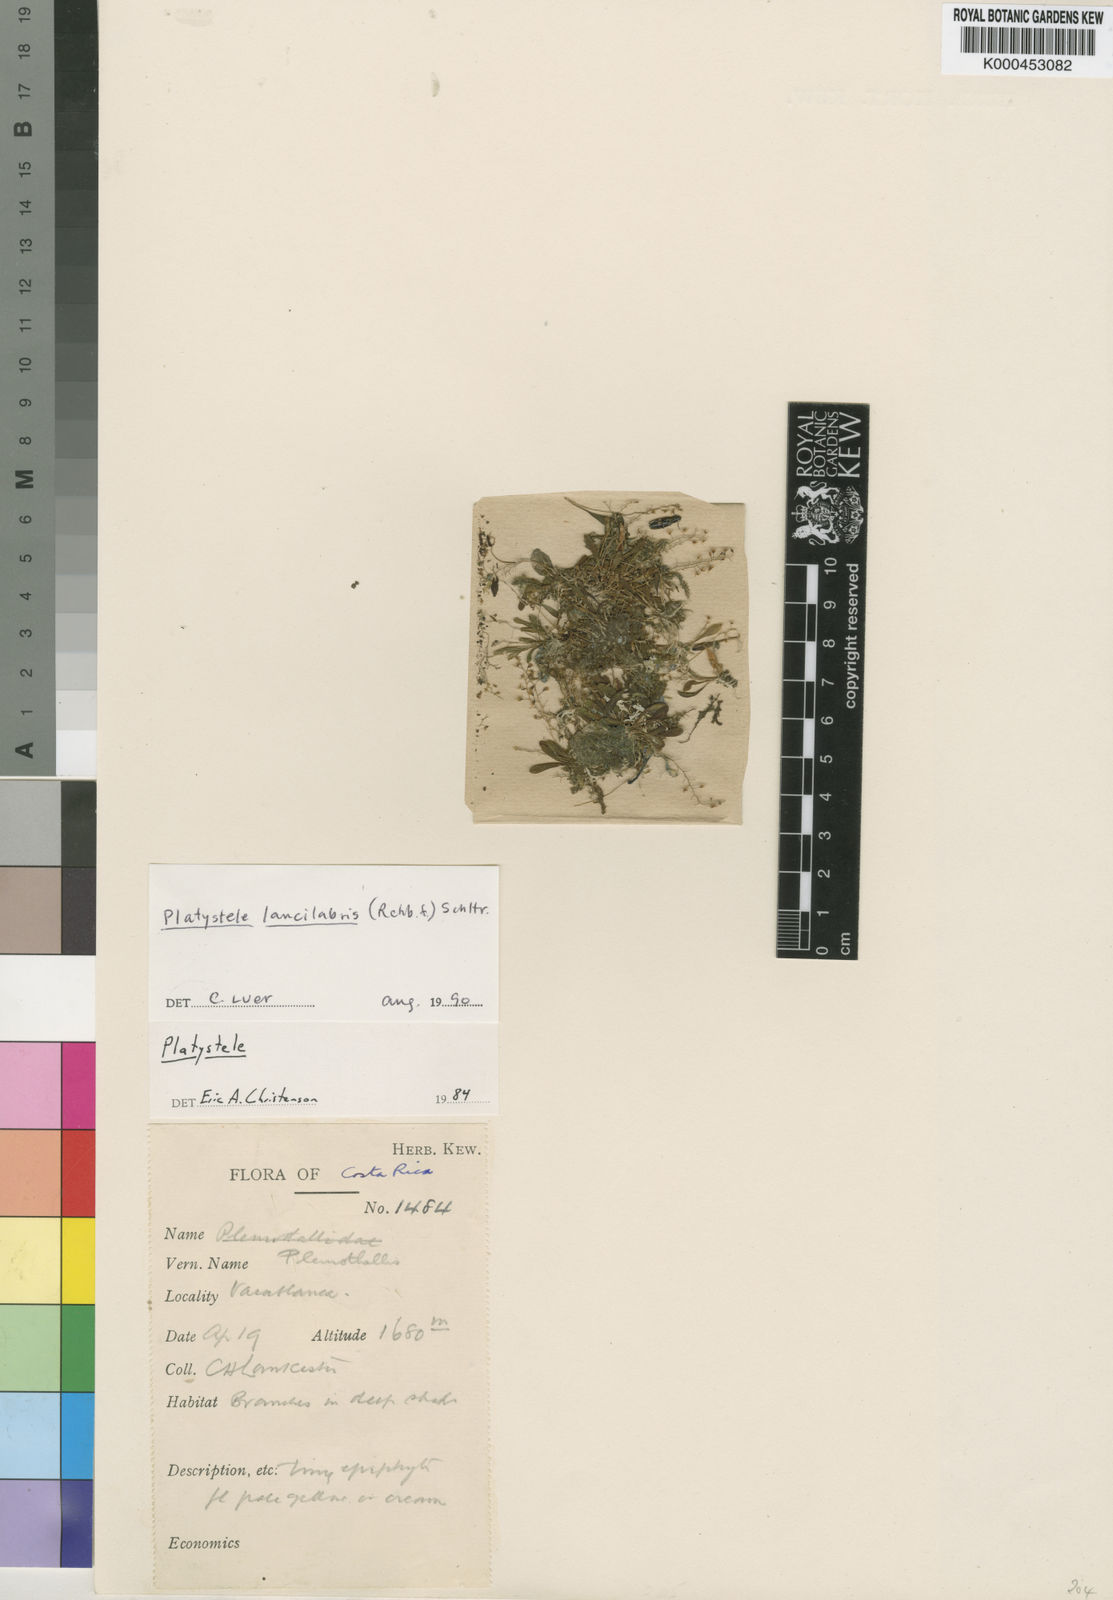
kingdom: Plantae
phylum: Tracheophyta
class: Liliopsida
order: Asparagales
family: Orchidaceae
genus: Platystele
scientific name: Platystele lancilabris
